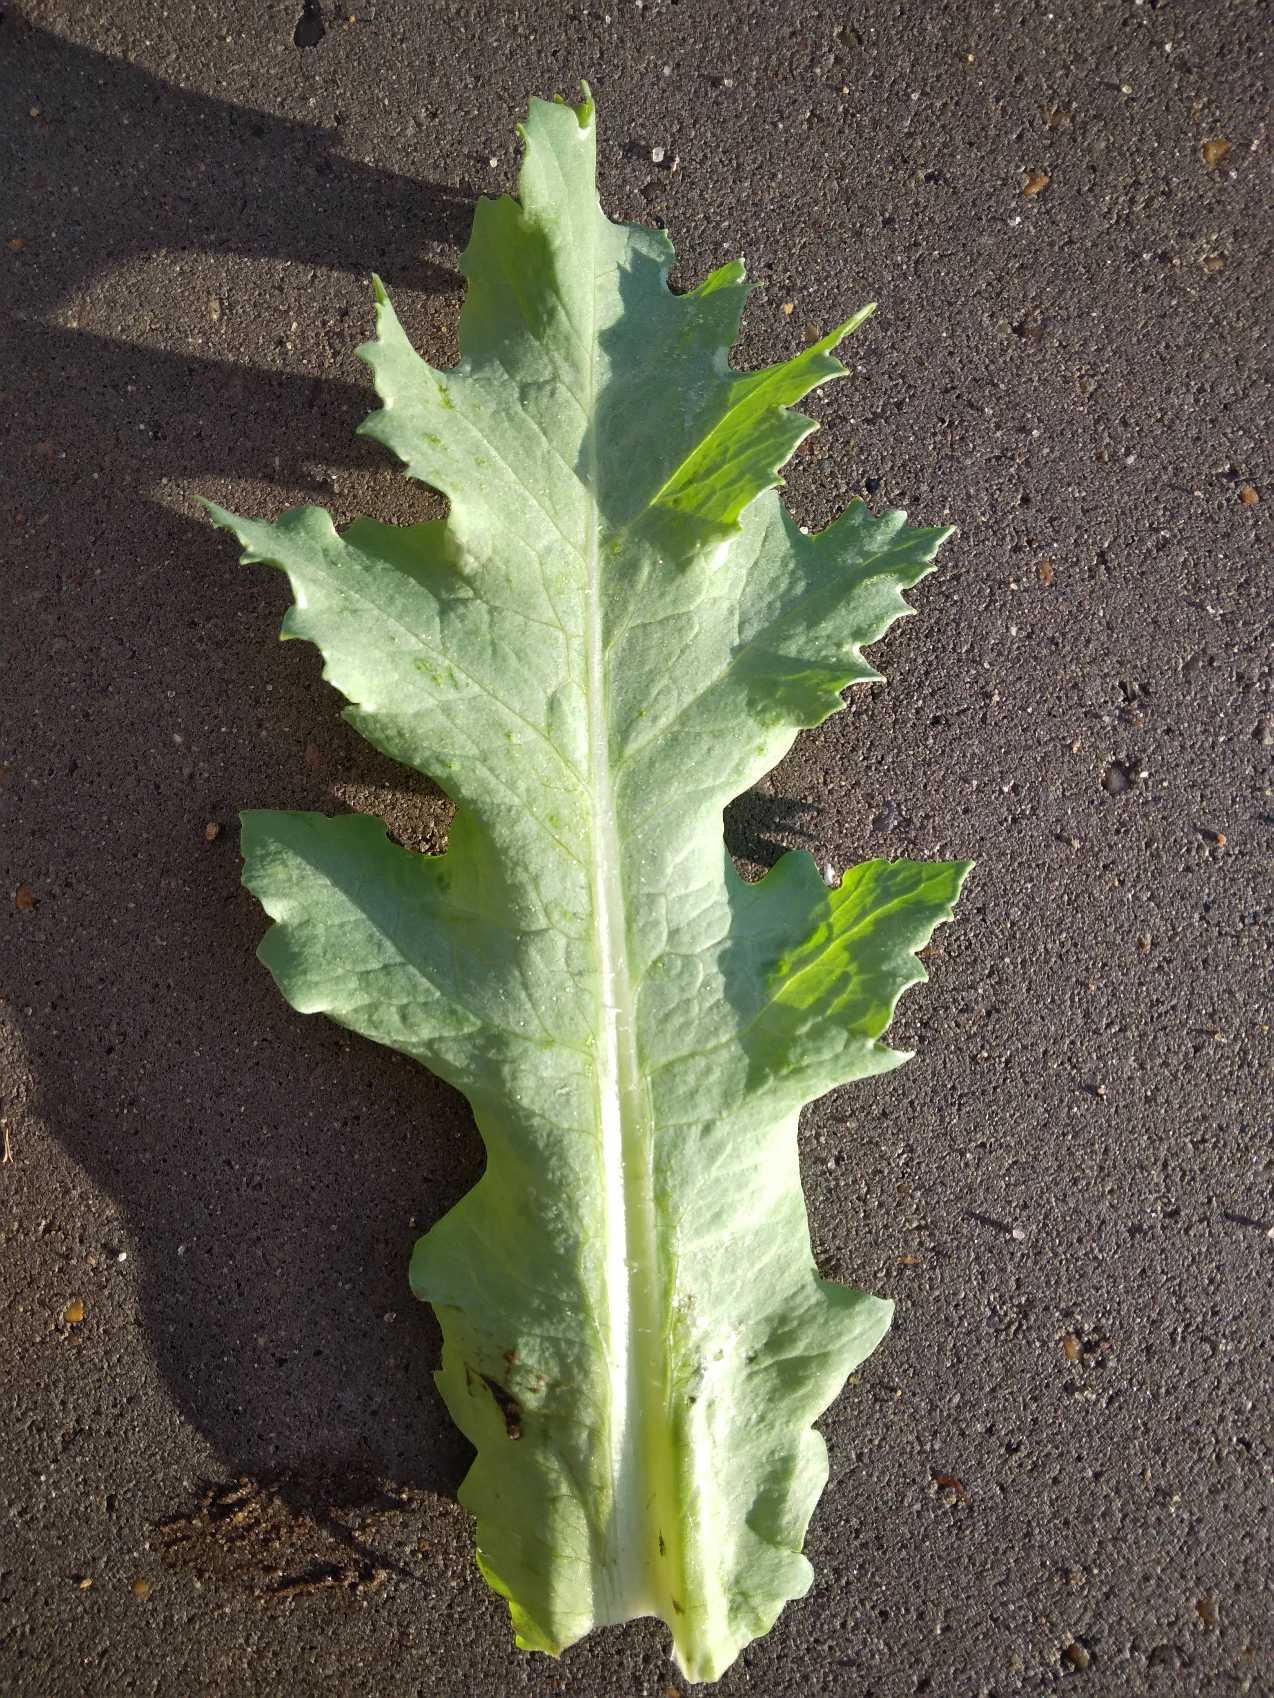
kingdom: Plantae
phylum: Tracheophyta
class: Magnoliopsida
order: Ranunculales
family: Papaveraceae
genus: Papaver
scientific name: Papaver somniferum
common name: Opium-valmue
